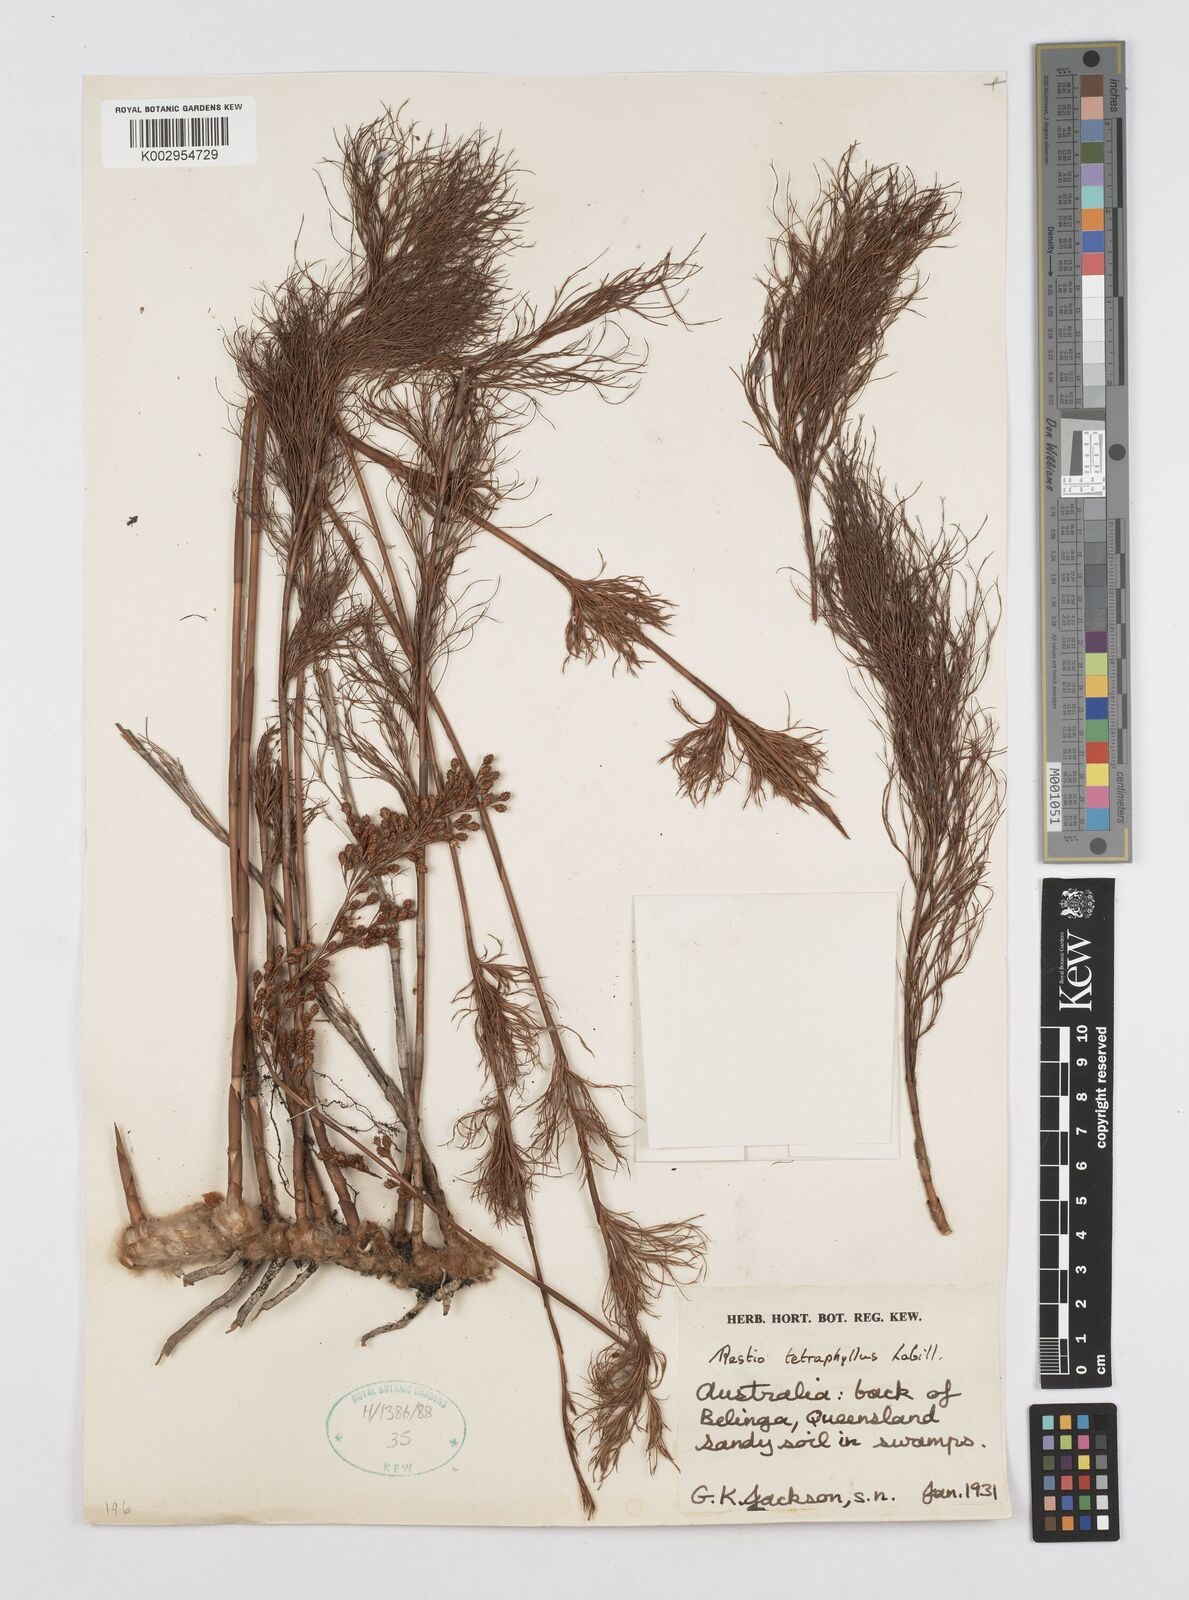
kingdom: Plantae
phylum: Tracheophyta
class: Liliopsida
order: Poales
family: Restionaceae
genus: Baloskion
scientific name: Baloskion tetraphyllum
